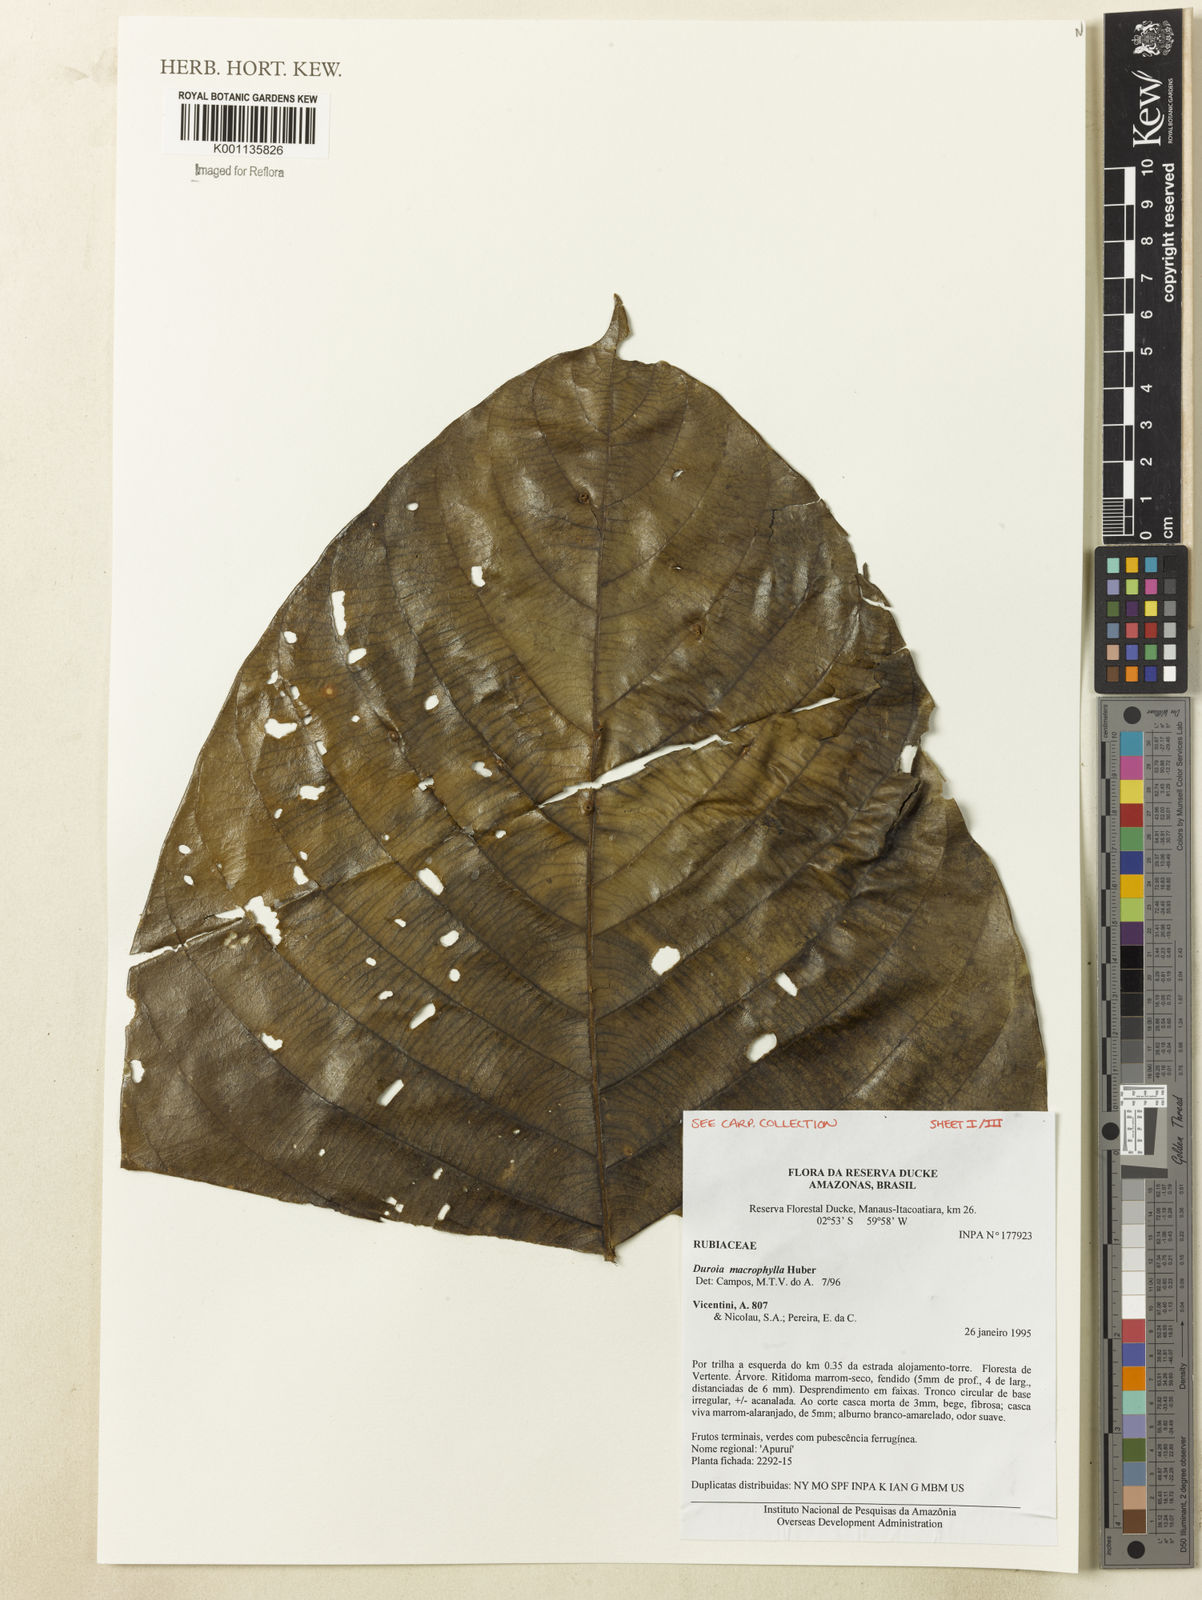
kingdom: Plantae
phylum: Tracheophyta
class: Magnoliopsida
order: Gentianales
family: Rubiaceae
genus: Duroia
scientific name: Duroia macrophylla
